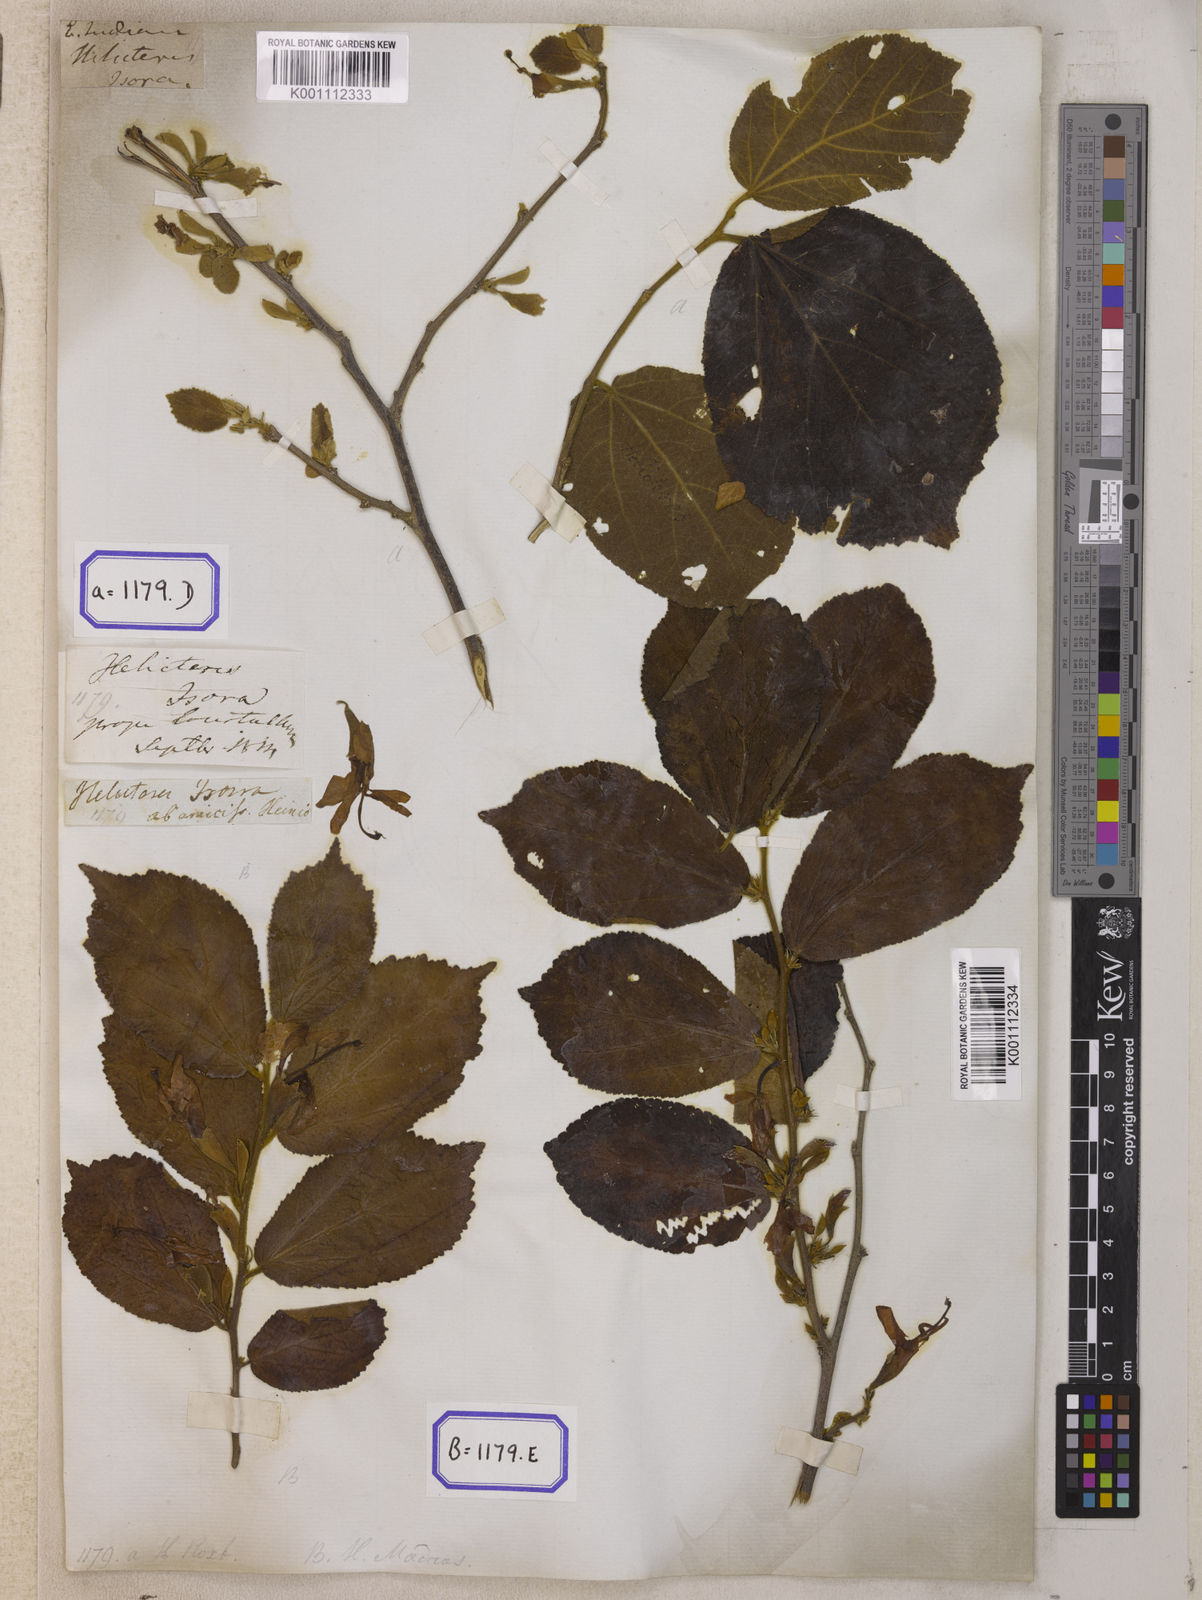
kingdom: Plantae
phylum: Tracheophyta
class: Magnoliopsida
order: Malvales
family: Malvaceae
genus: Helicteres
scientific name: Helicteres isora
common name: East indian screwtree
